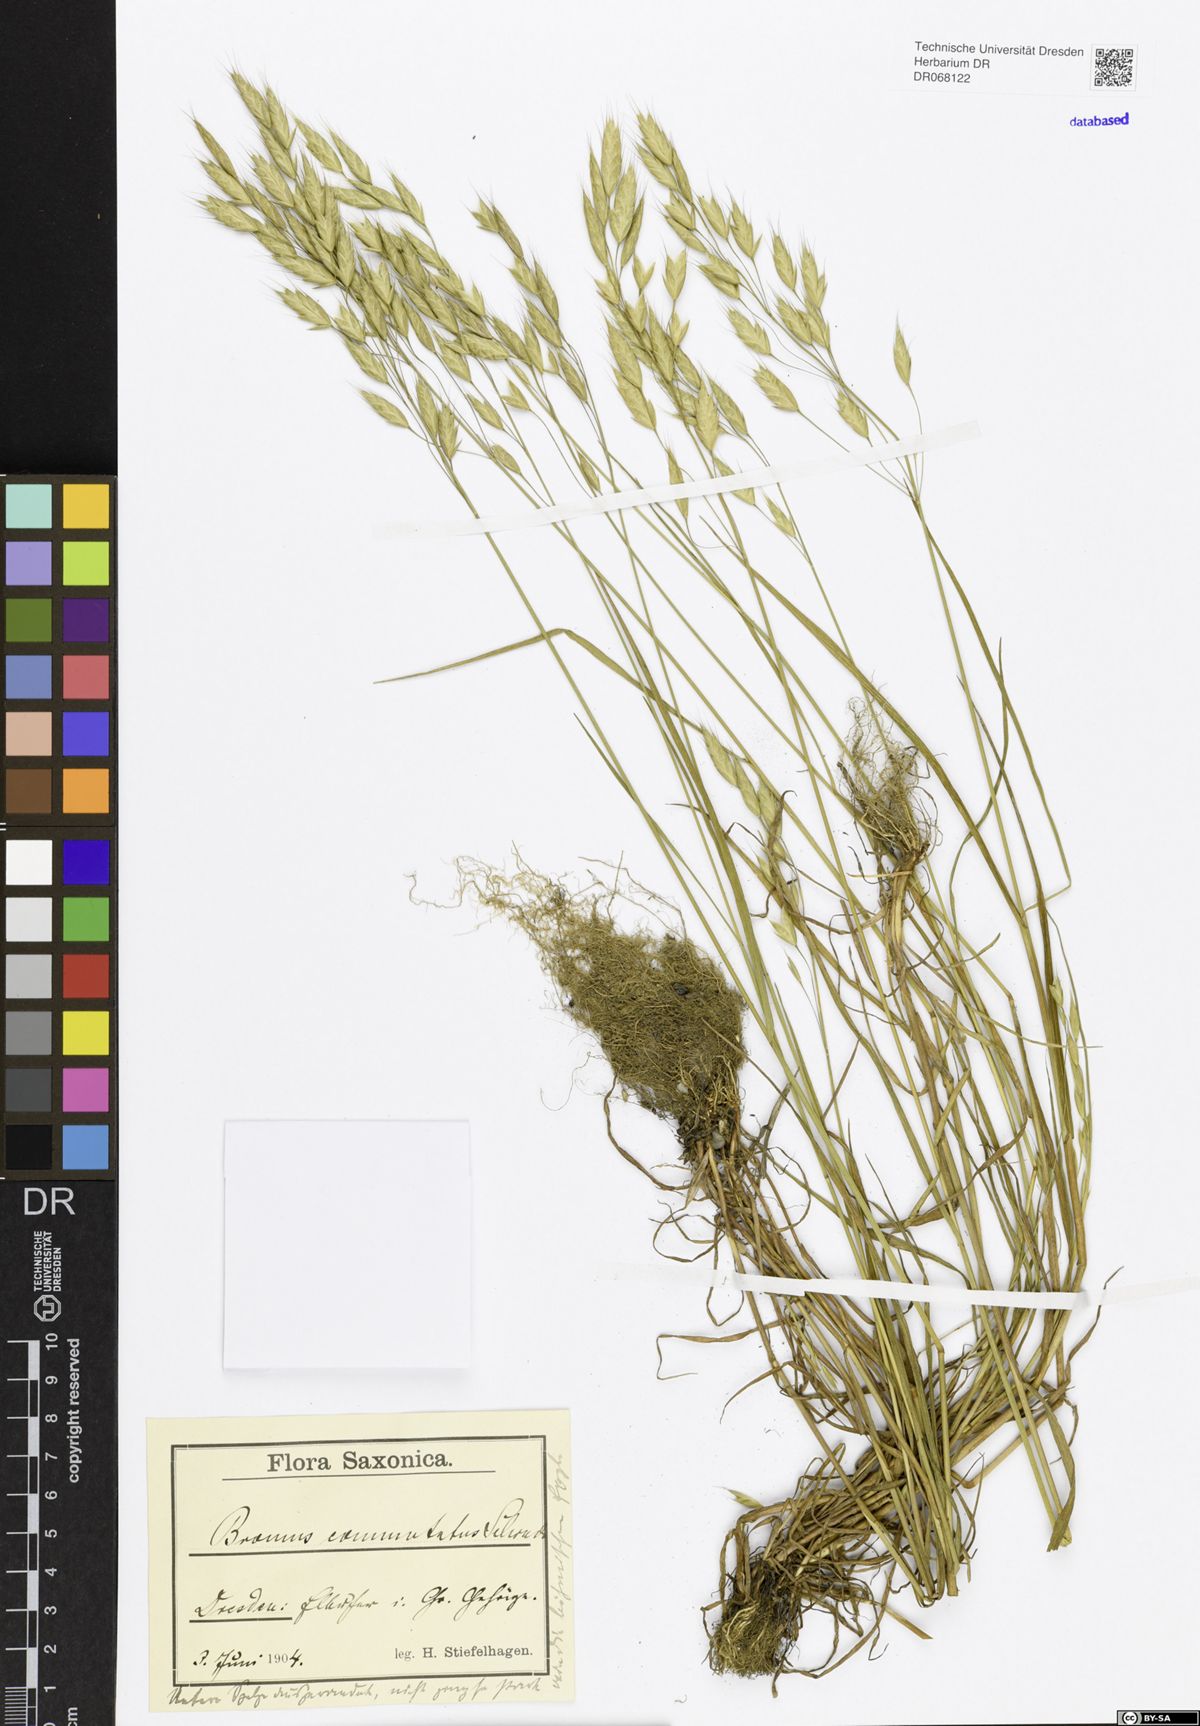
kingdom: Plantae
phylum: Tracheophyta
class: Liliopsida
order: Poales
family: Poaceae
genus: Bromus
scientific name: Bromus commutatus
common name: Meadow brome
